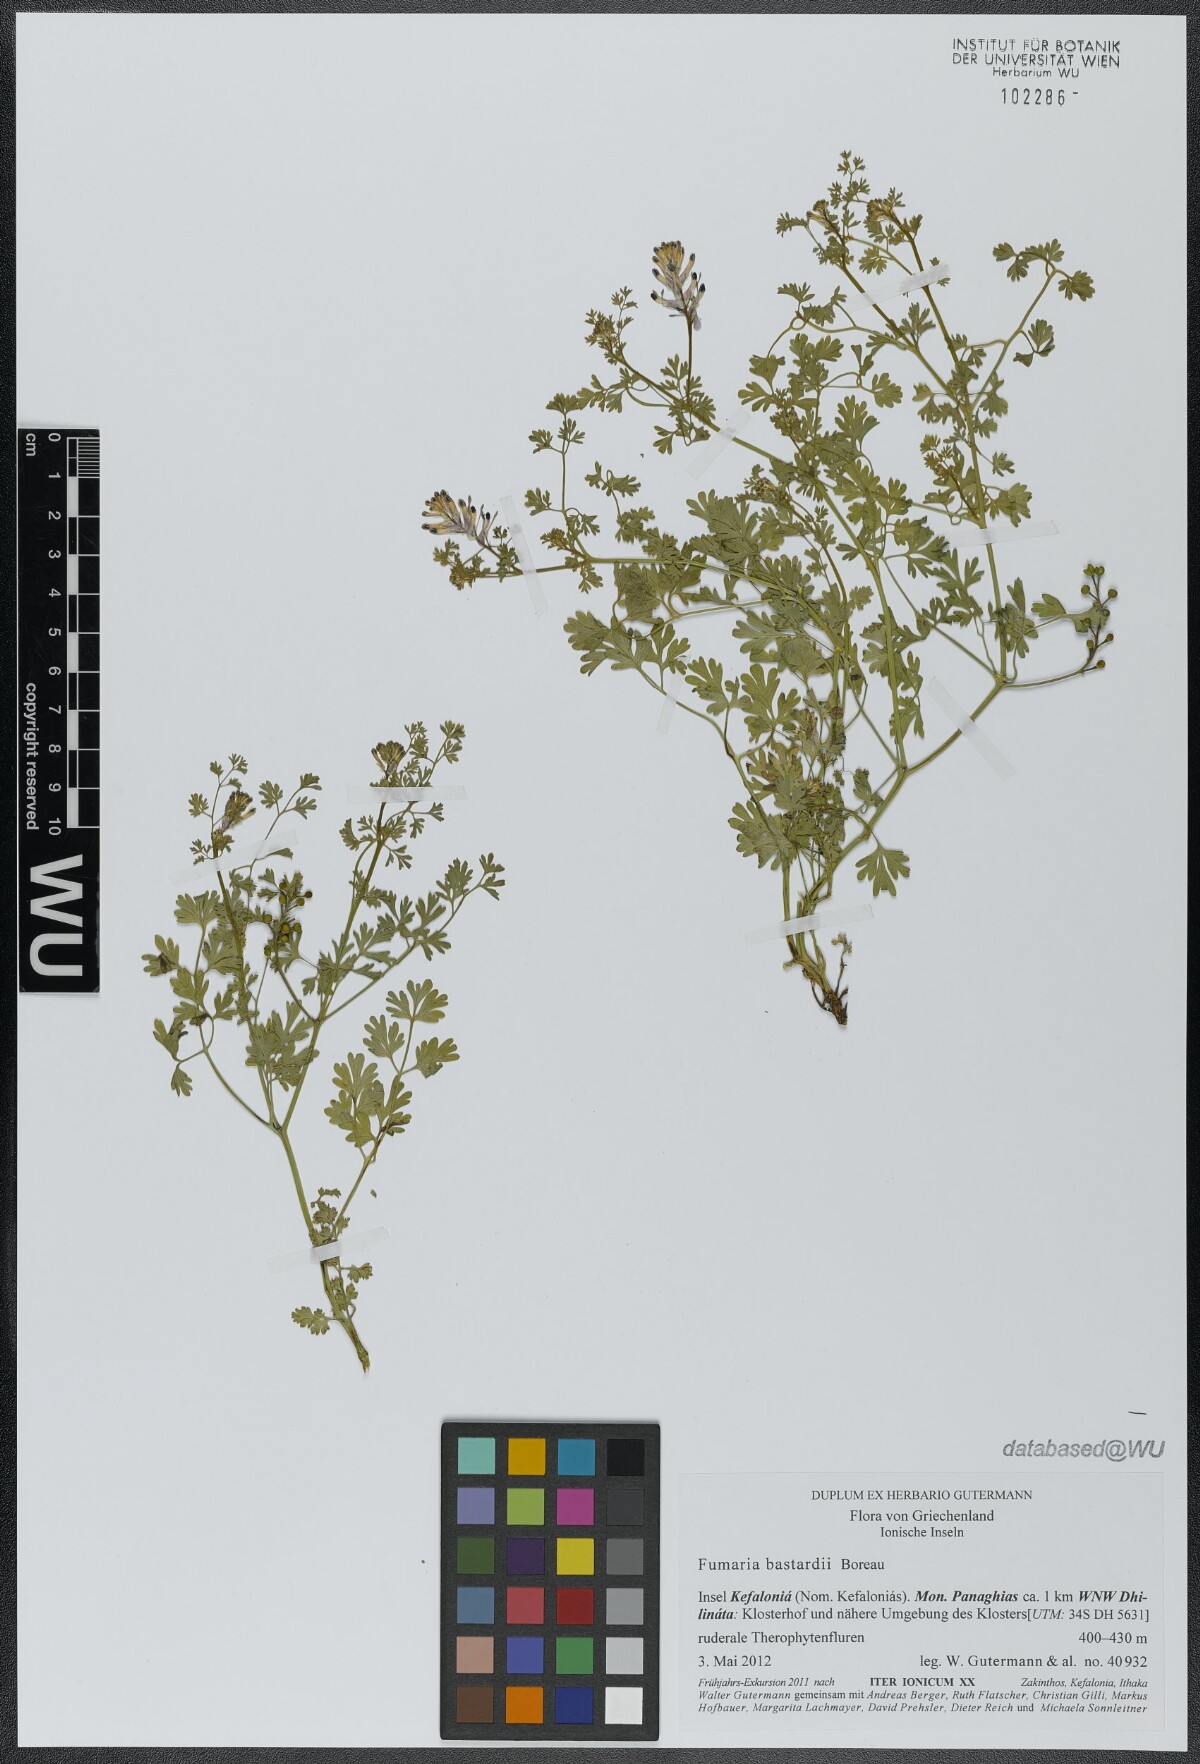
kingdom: Plantae
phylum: Tracheophyta
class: Magnoliopsida
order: Ranunculales
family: Papaveraceae
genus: Fumaria
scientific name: Fumaria bastardii
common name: Tall ramping-fumitory
